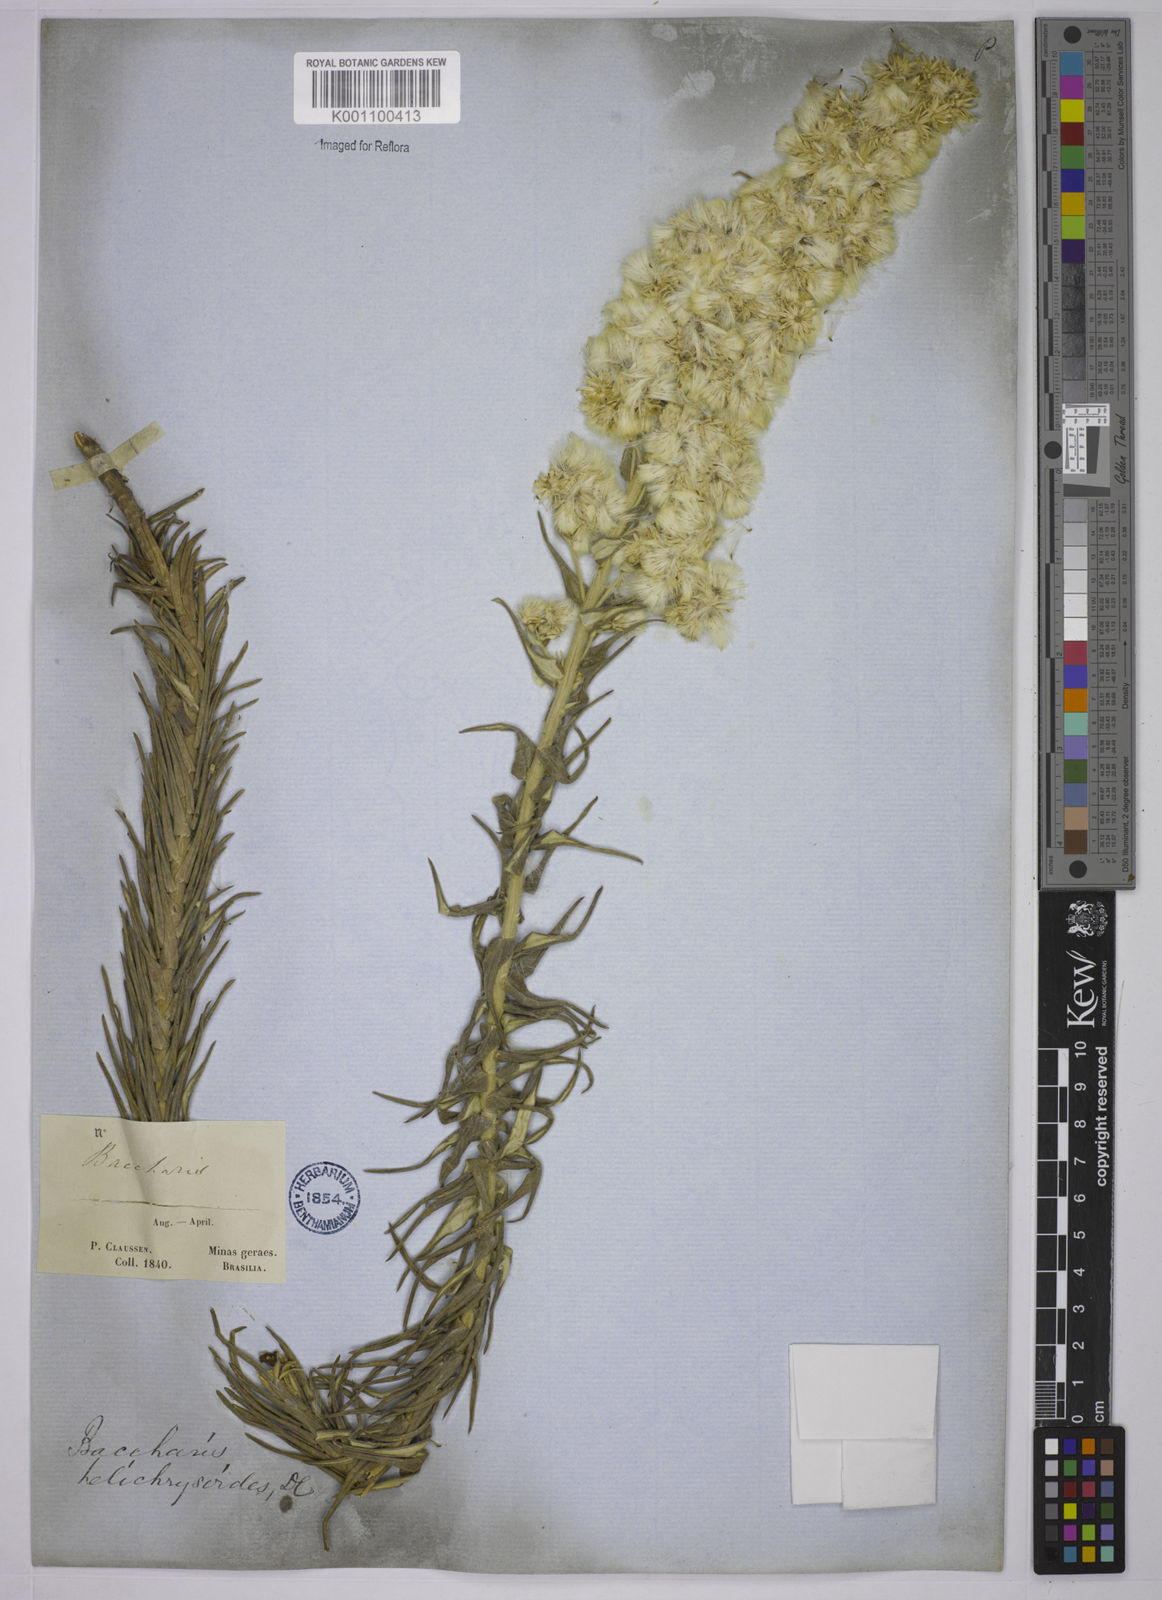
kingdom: Plantae
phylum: Tracheophyta
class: Magnoliopsida
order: Asterales
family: Asteraceae
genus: Baccharis
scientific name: Baccharis helichrysoides
